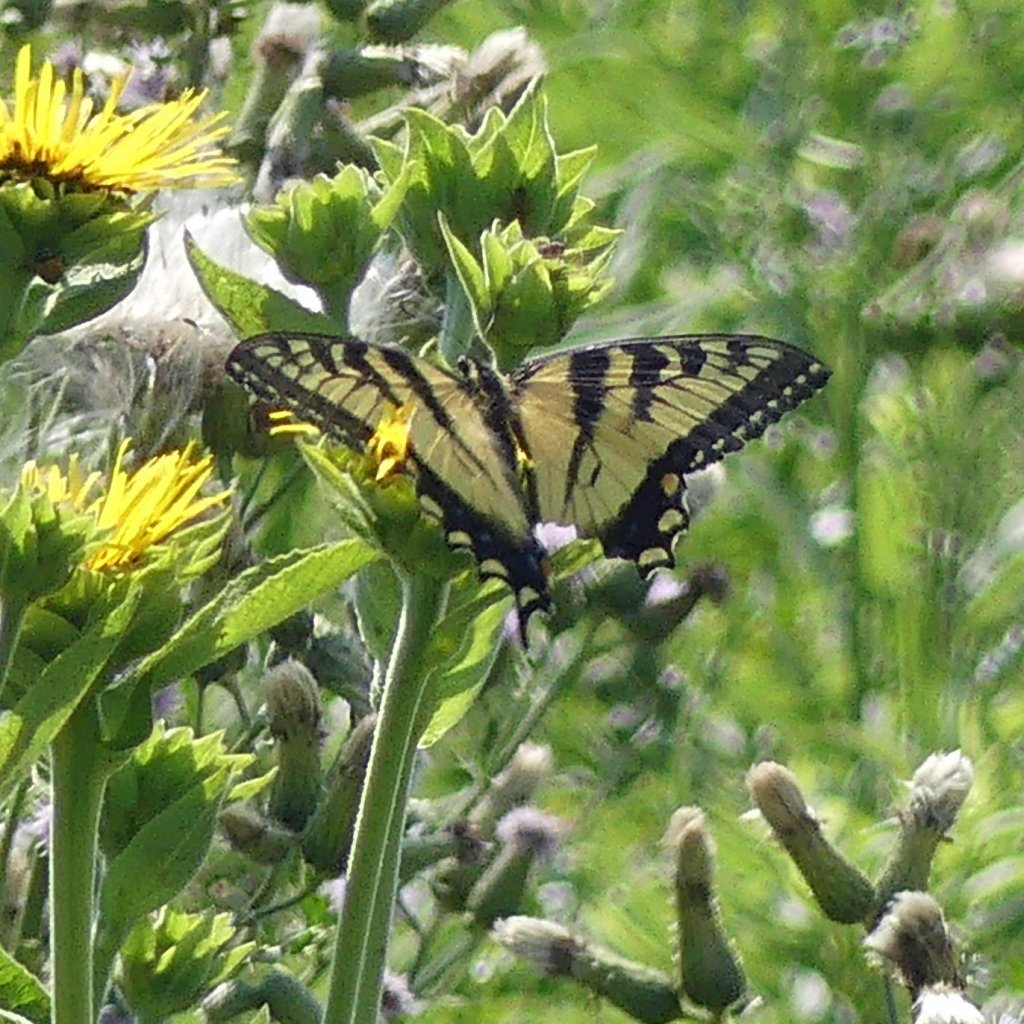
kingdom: Animalia
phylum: Arthropoda
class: Insecta
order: Lepidoptera
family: Papilionidae
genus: Pterourus
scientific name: Pterourus glaucus
